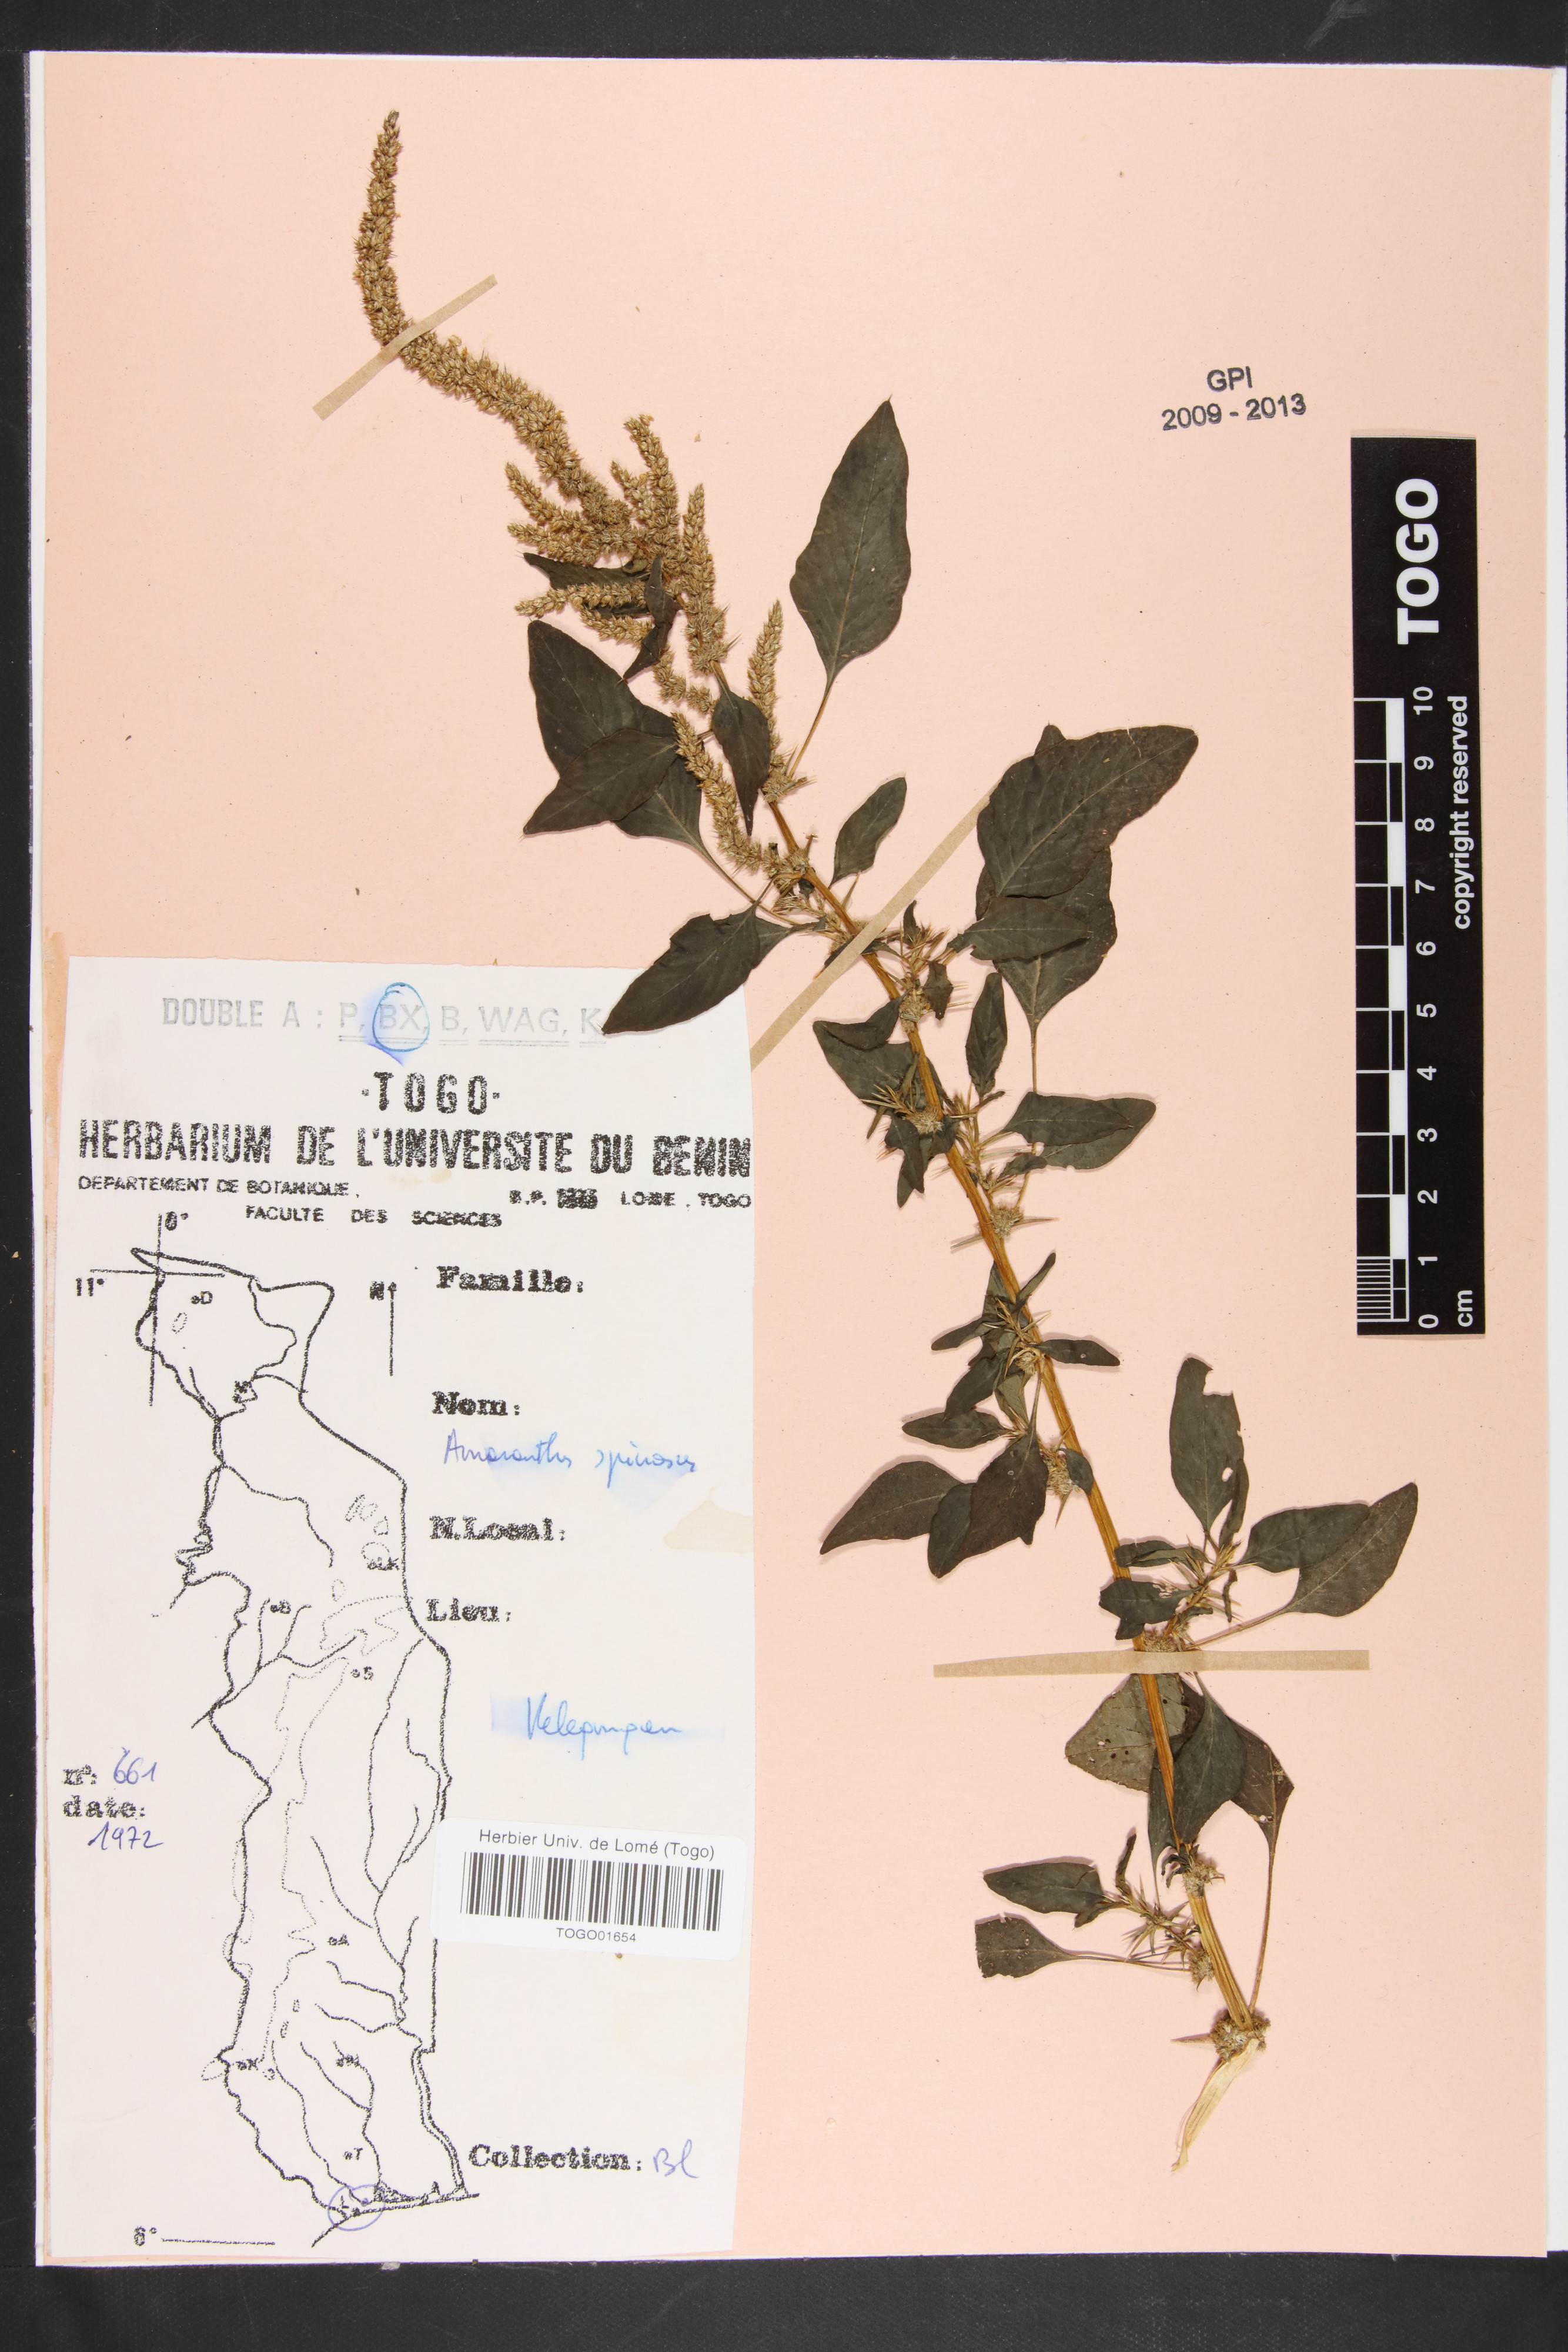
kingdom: Plantae
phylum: Tracheophyta
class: Magnoliopsida
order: Caryophyllales
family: Amaranthaceae
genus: Amaranthus
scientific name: Amaranthus spinosus
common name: Spiny amaranth
